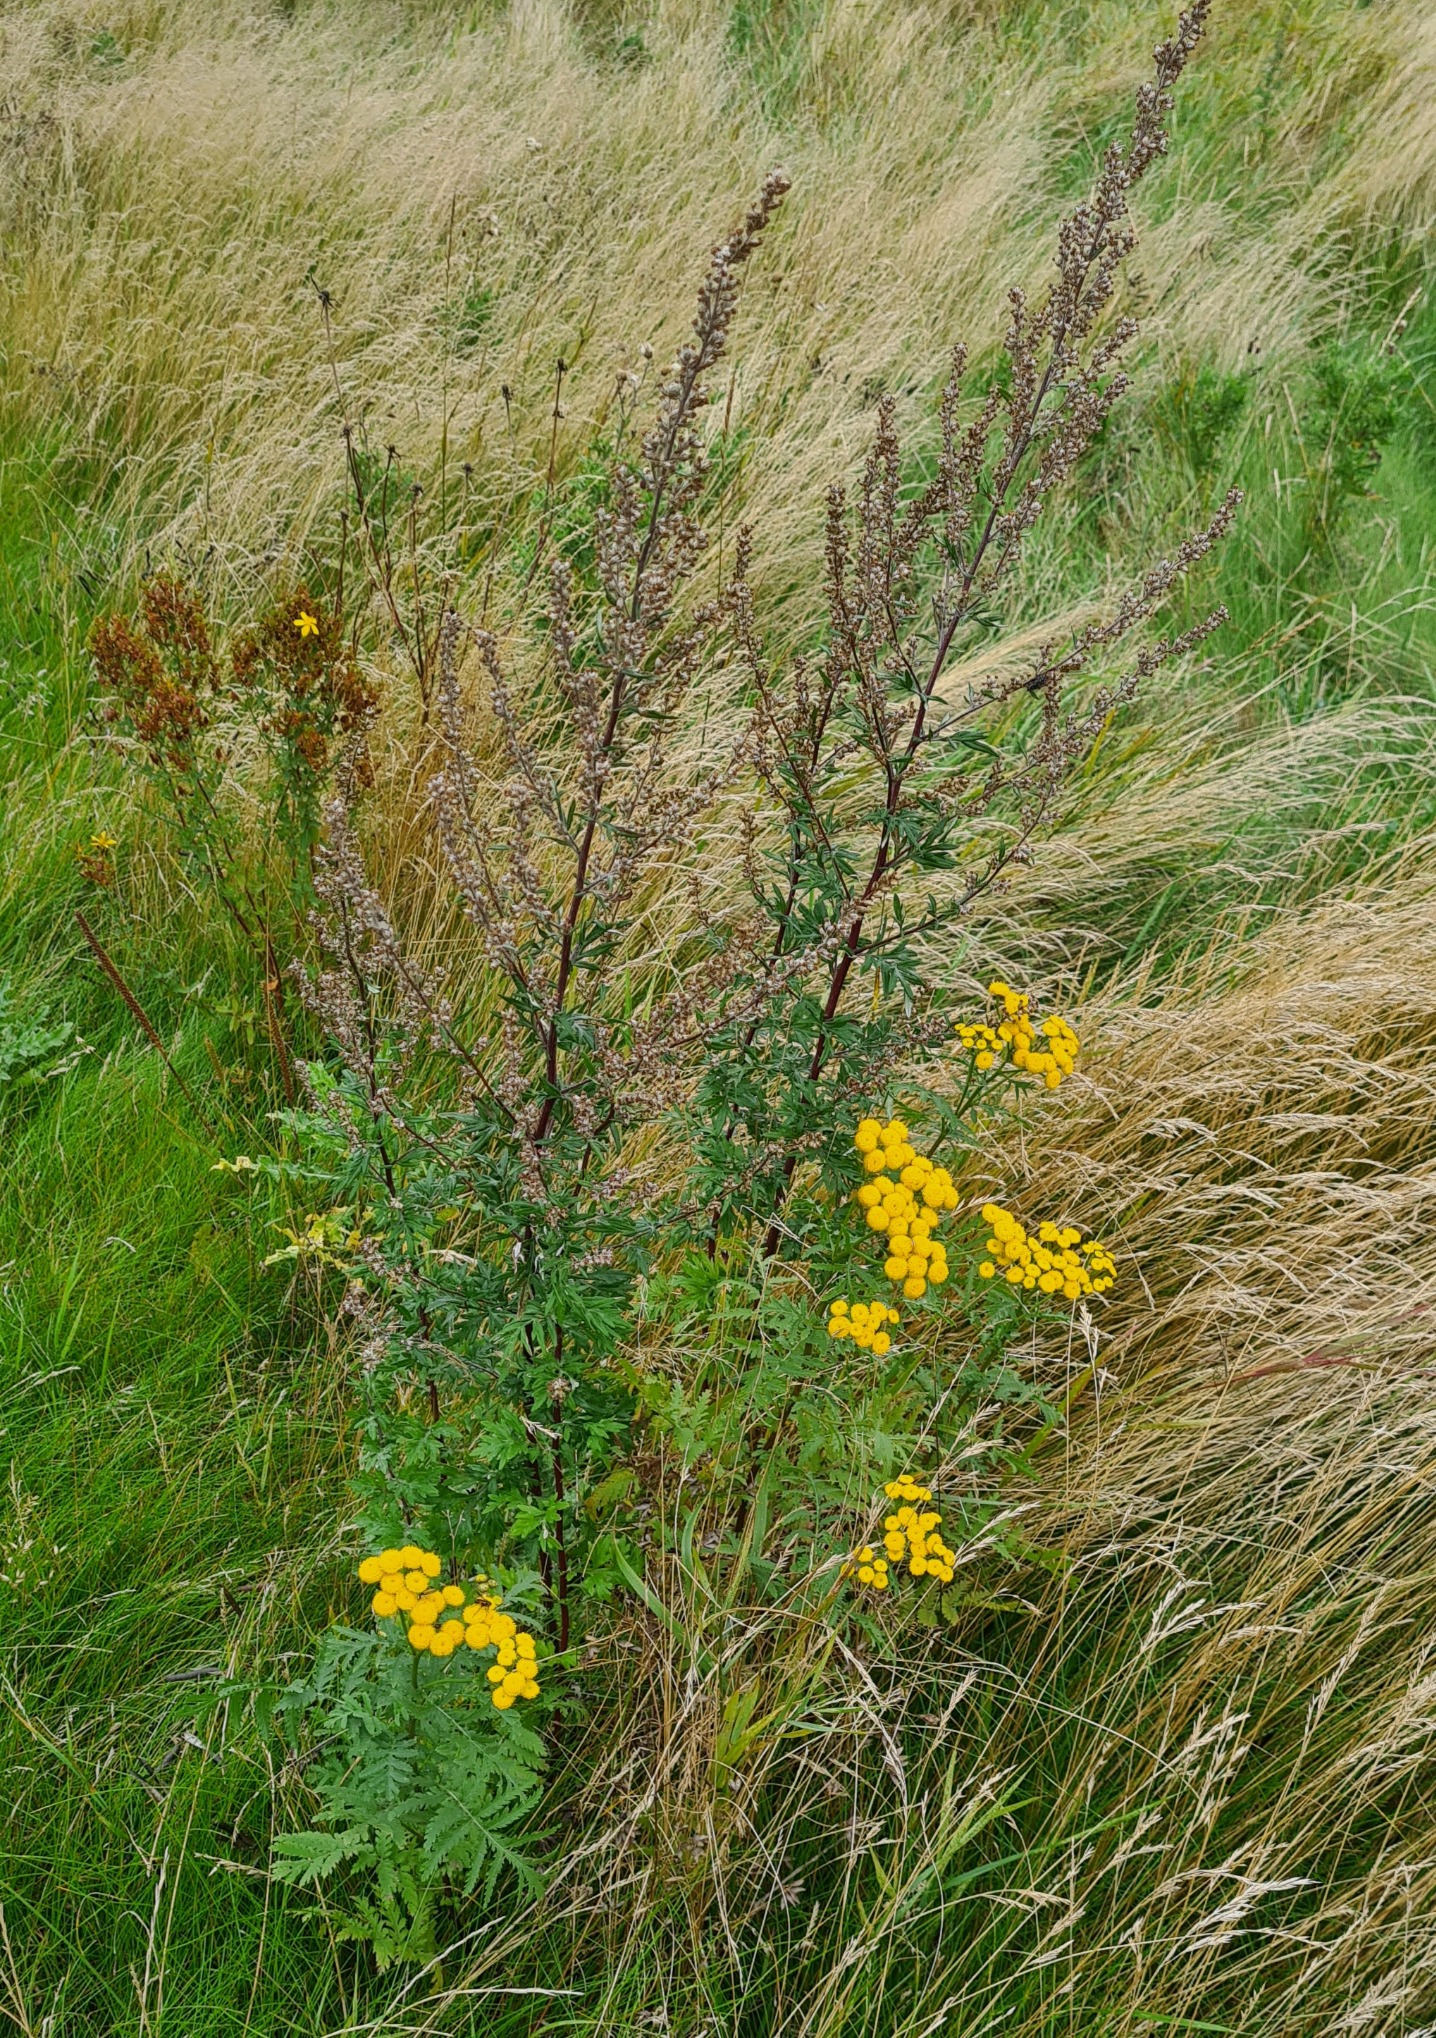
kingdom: Plantae
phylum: Tracheophyta
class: Magnoliopsida
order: Asterales
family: Asteraceae
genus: Tanacetum
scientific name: Tanacetum vulgare
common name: Rejnfan
